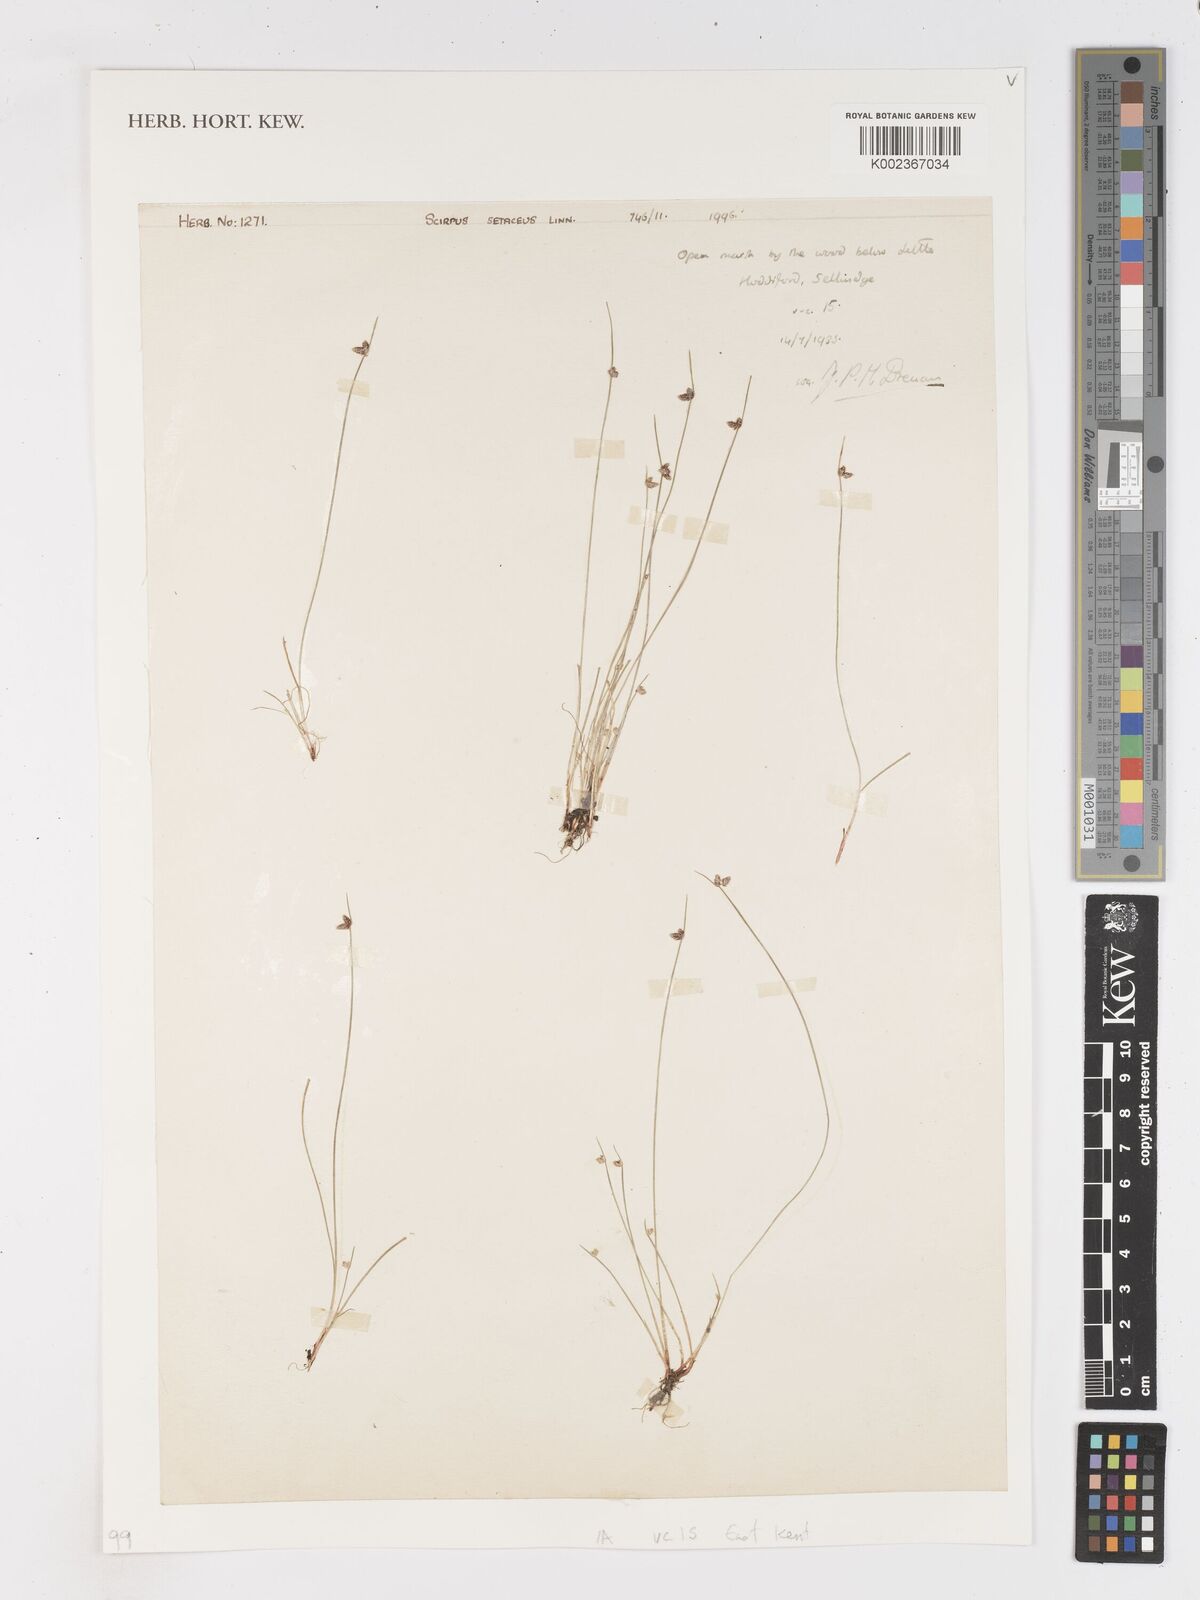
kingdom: Plantae
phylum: Tracheophyta
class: Liliopsida
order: Poales
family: Cyperaceae
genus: Isolepis
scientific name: Isolepis setacea
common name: Bristle club-rush
